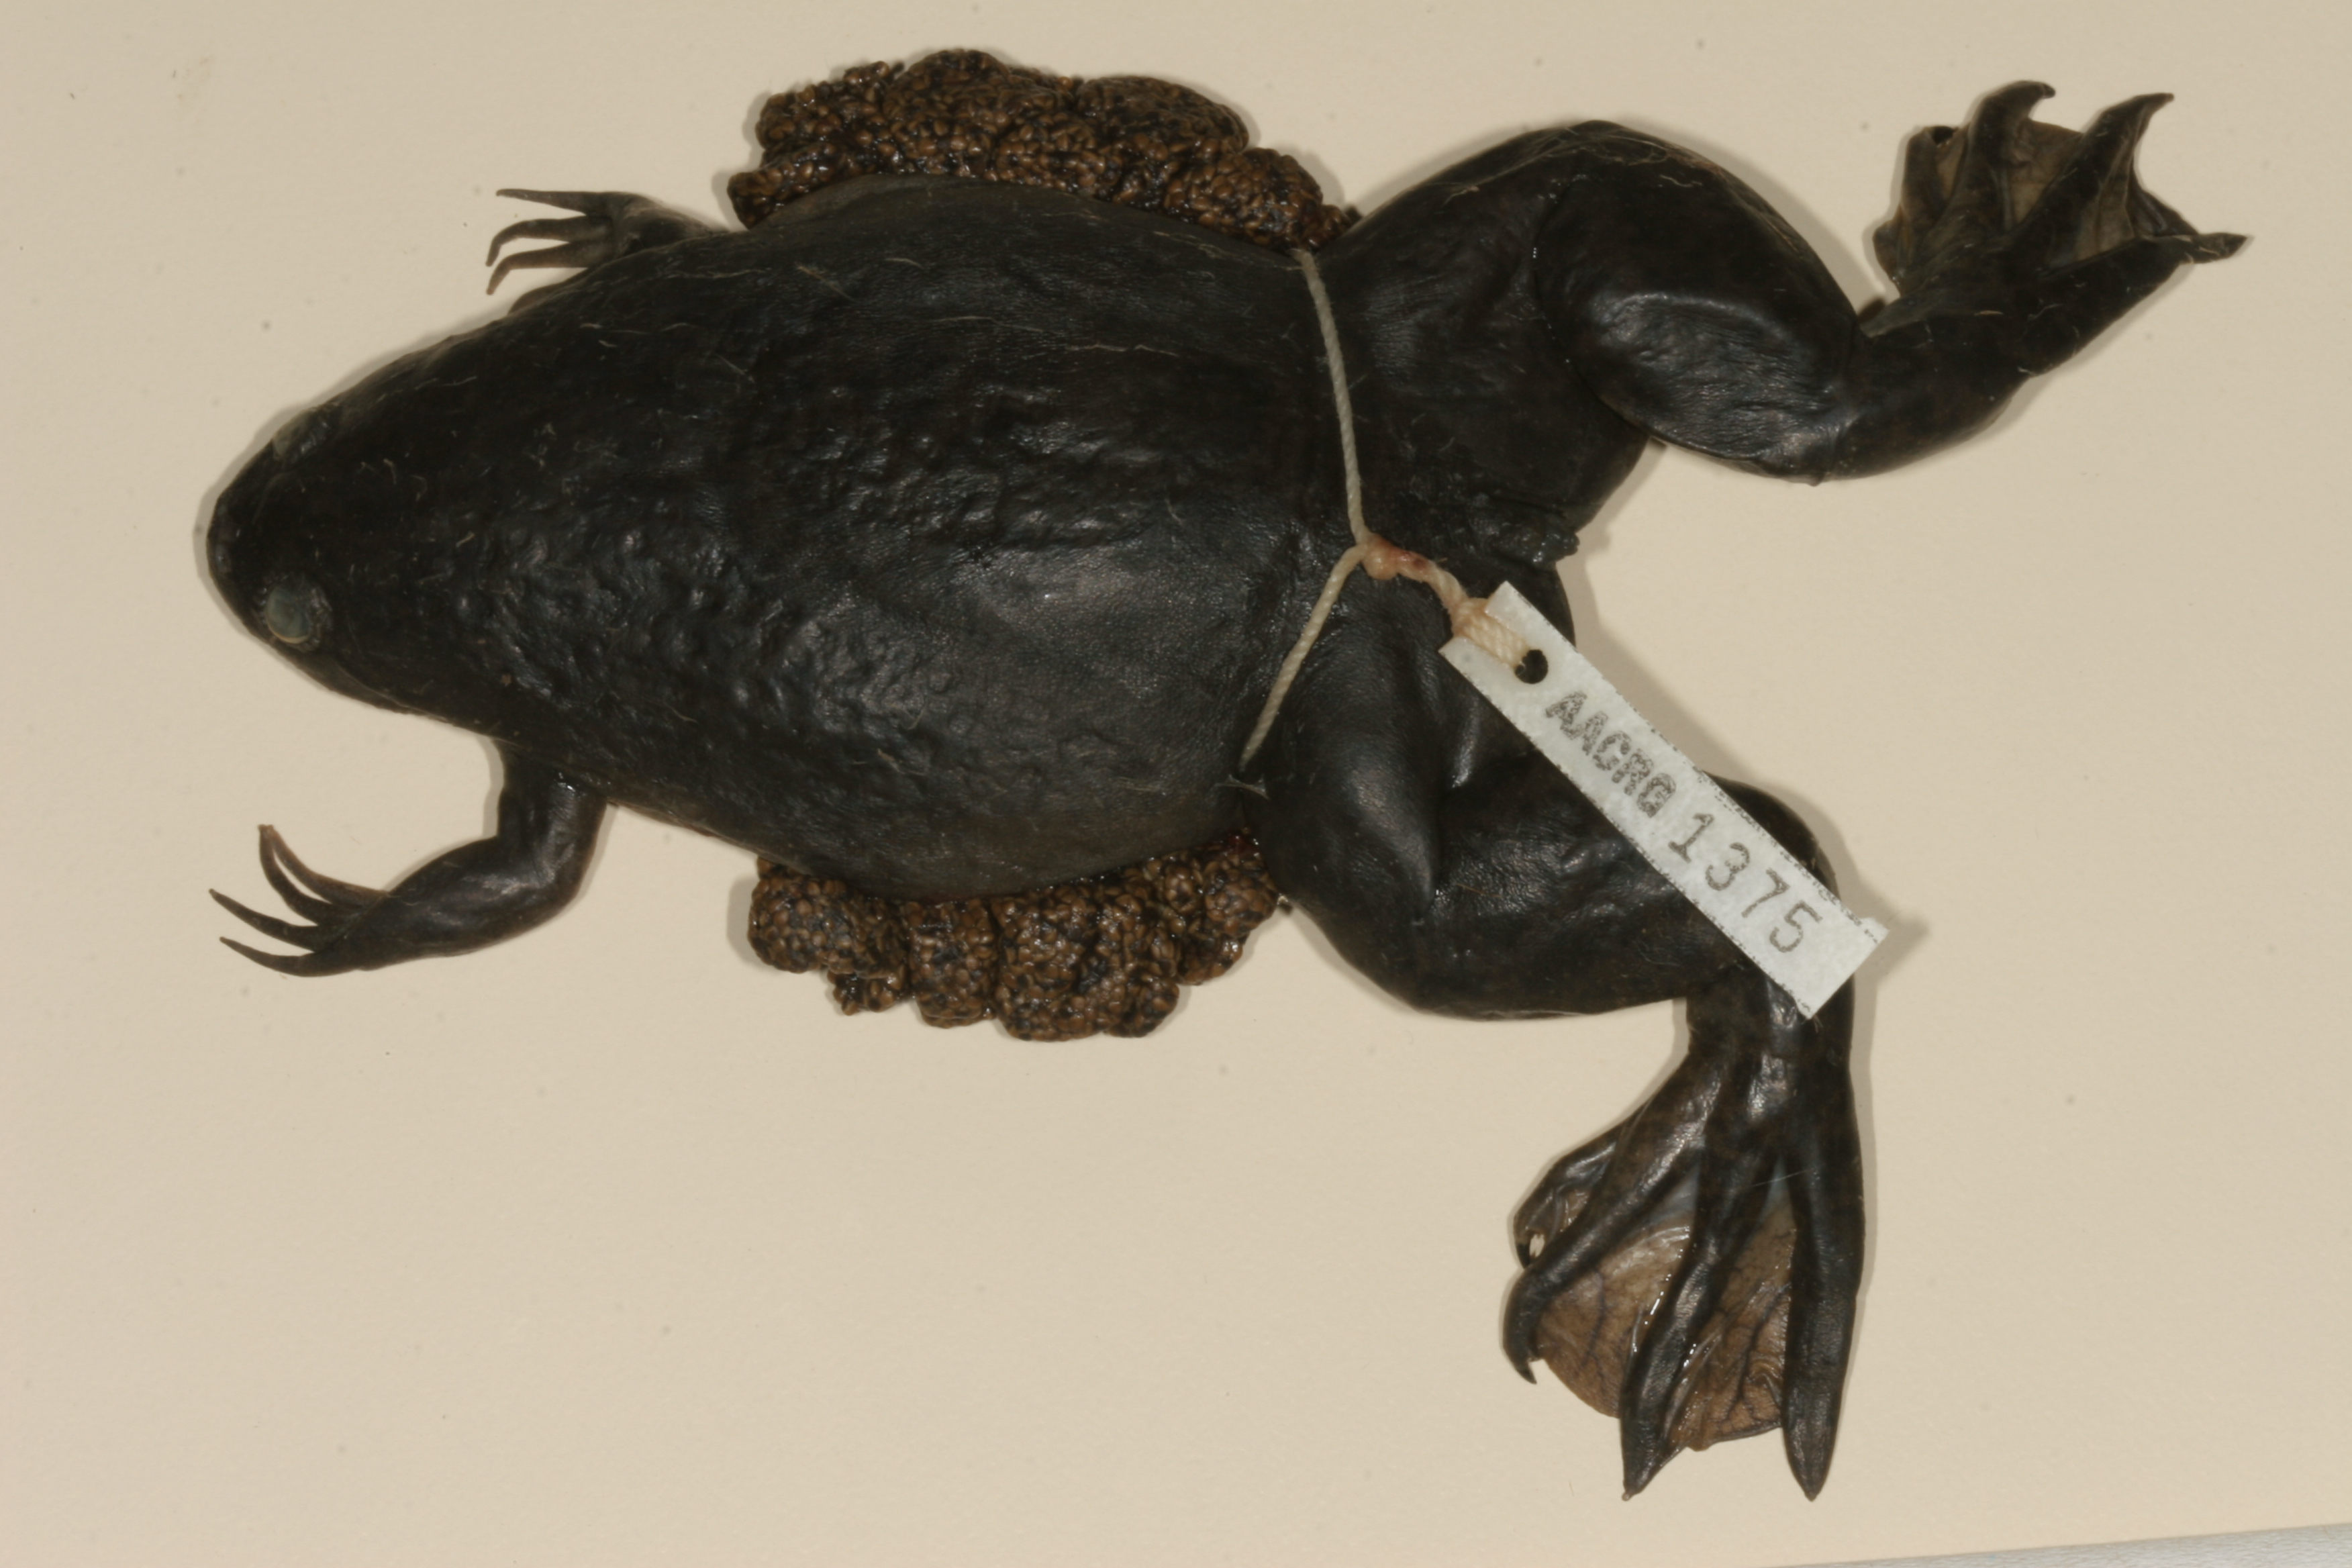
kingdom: Animalia
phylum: Chordata
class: Amphibia
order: Anura
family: Pipidae
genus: Xenopus
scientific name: Xenopus laevis
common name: African clawed frog
